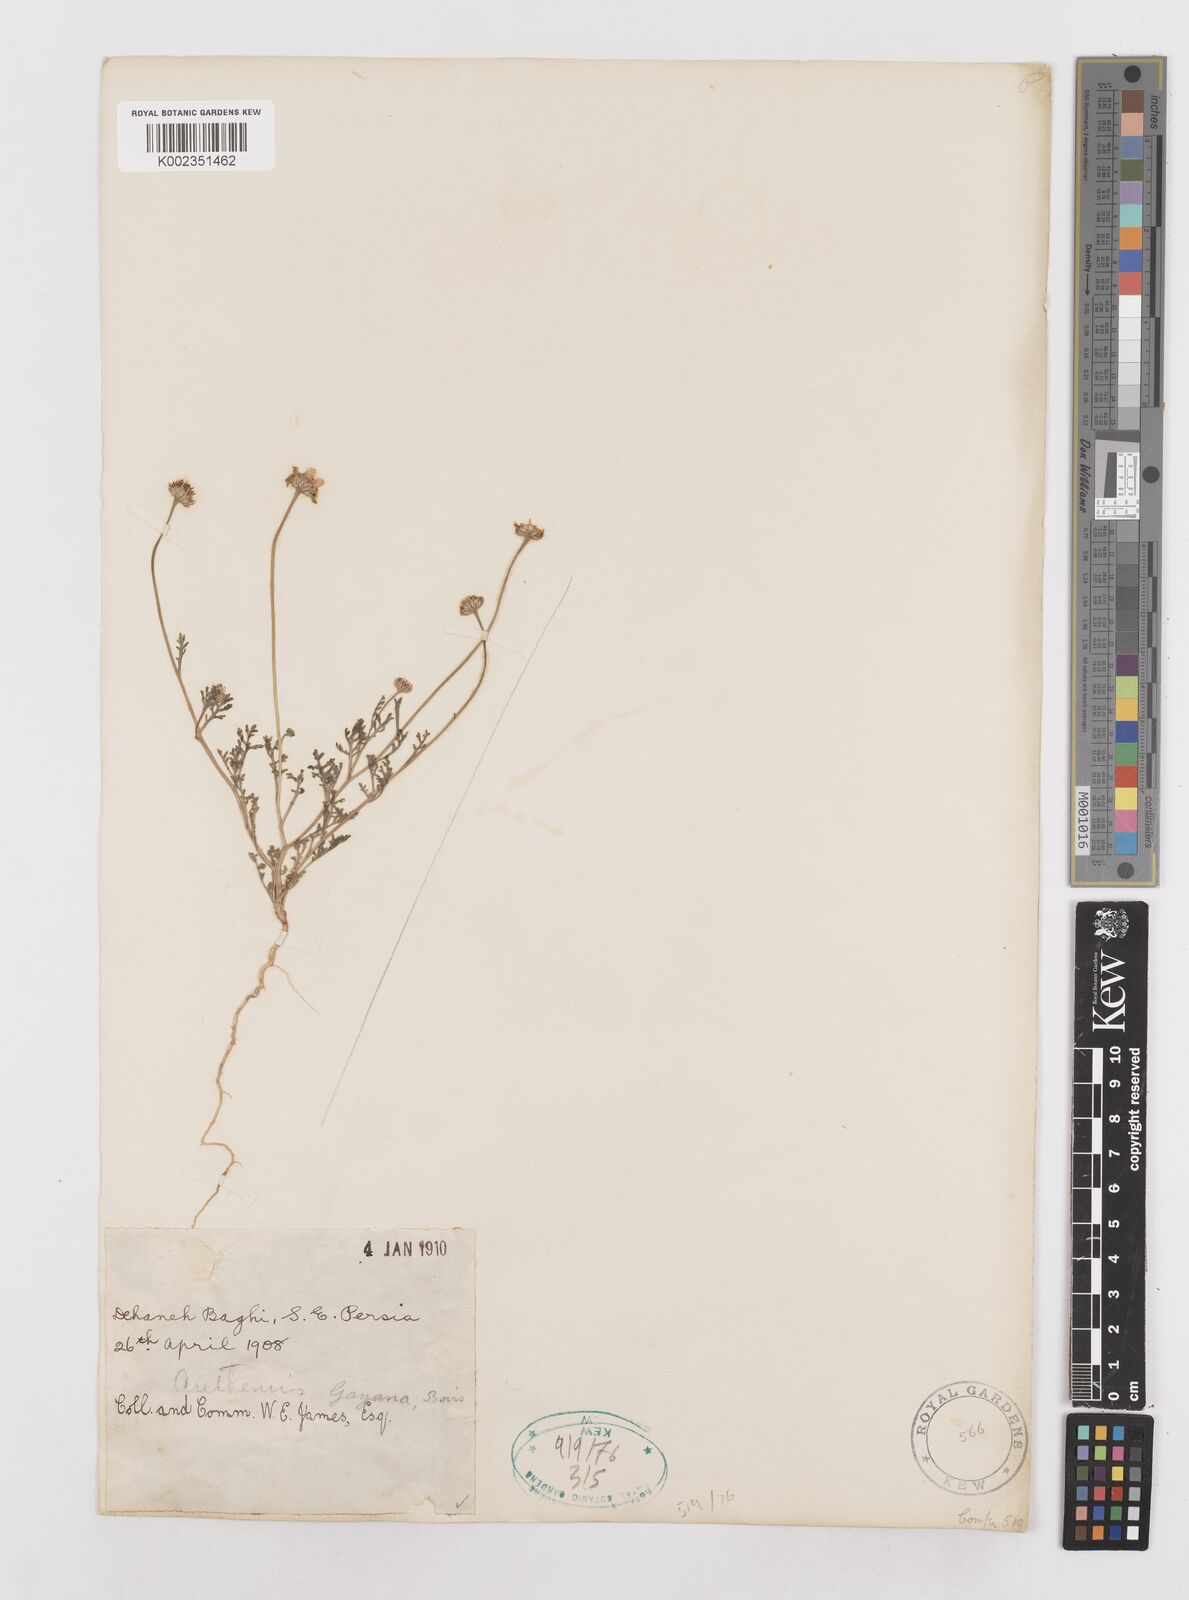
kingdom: Plantae
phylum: Tracheophyta
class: Magnoliopsida
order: Asterales
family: Asteraceae
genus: Anthemis
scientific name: Anthemis gayana
